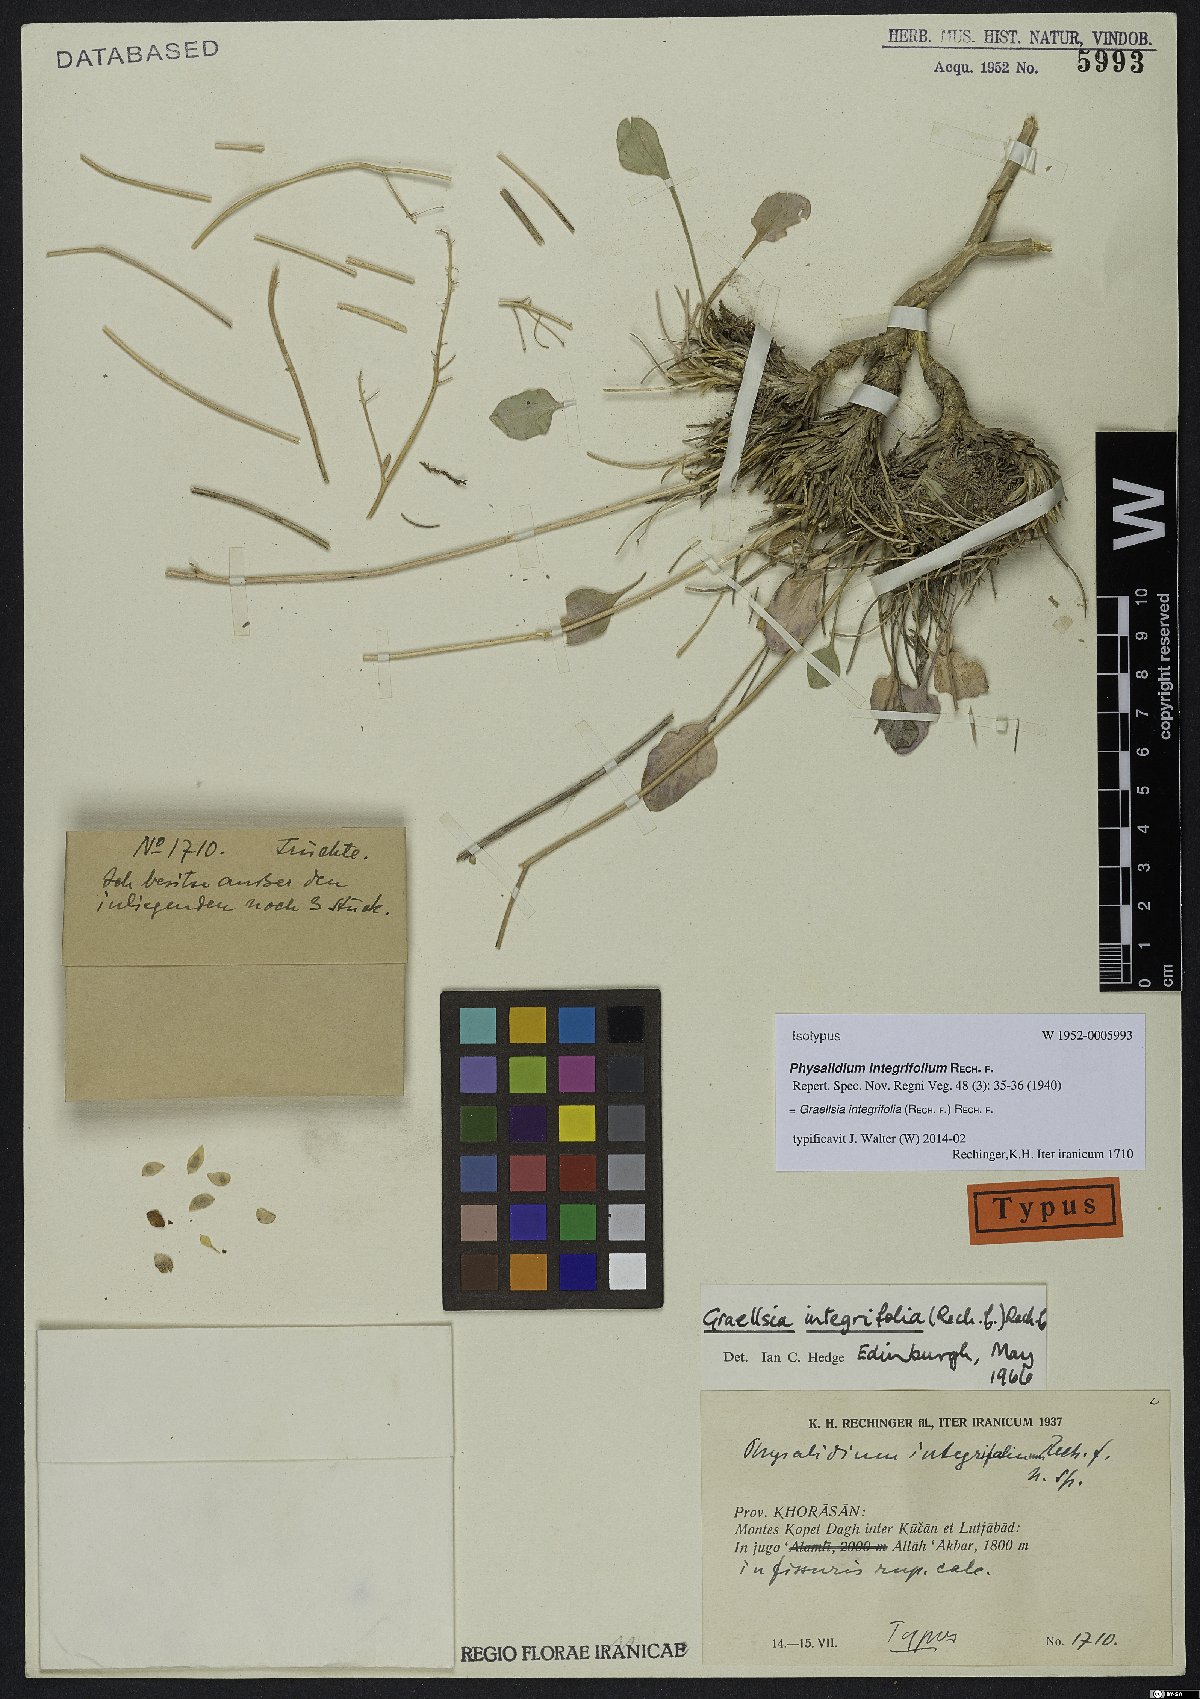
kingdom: Plantae
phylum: Tracheophyta
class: Magnoliopsida
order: Brassicales
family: Brassicaceae
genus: Graellsia
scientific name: Graellsia integrifolia
